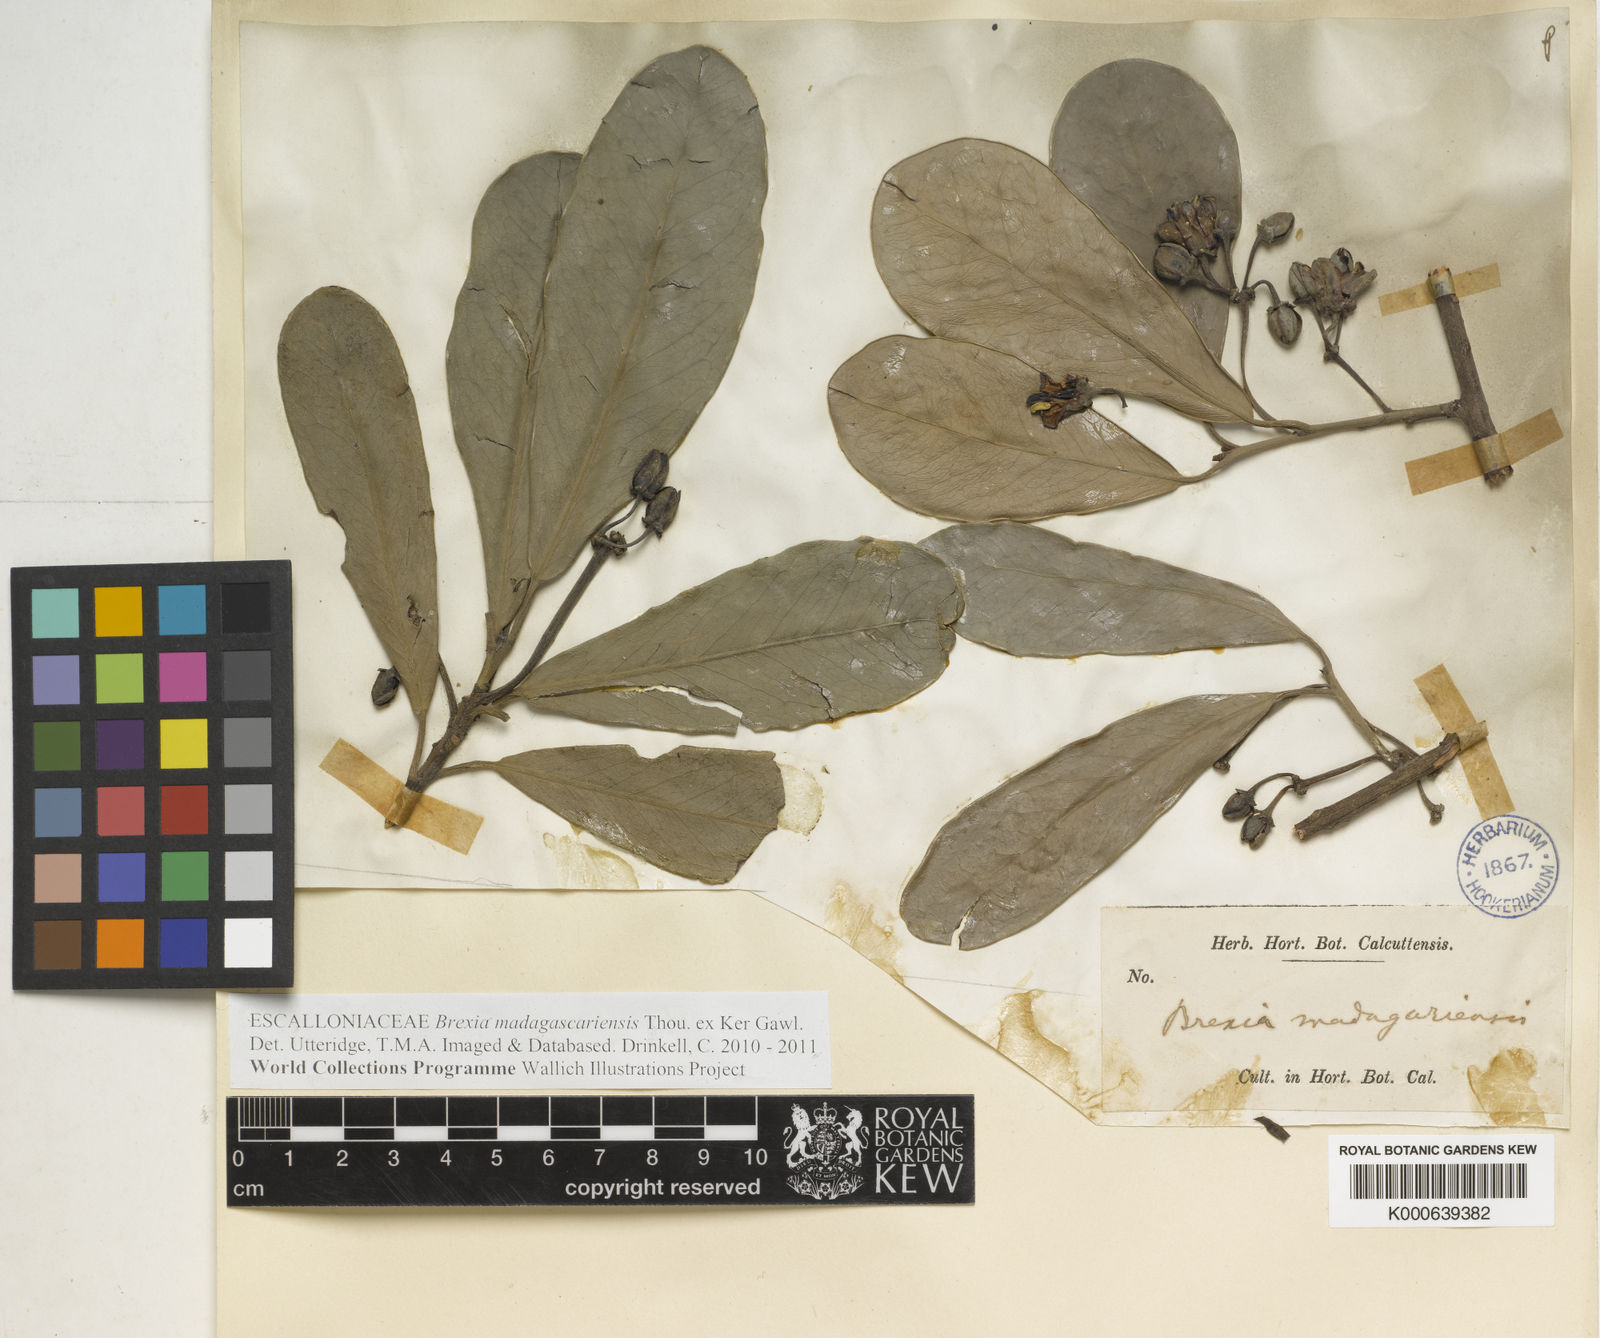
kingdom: Plantae
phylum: Tracheophyta
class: Magnoliopsida
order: Celastrales
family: Celastraceae
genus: Brexia
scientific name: Brexia madagascariensis
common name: Brexia
